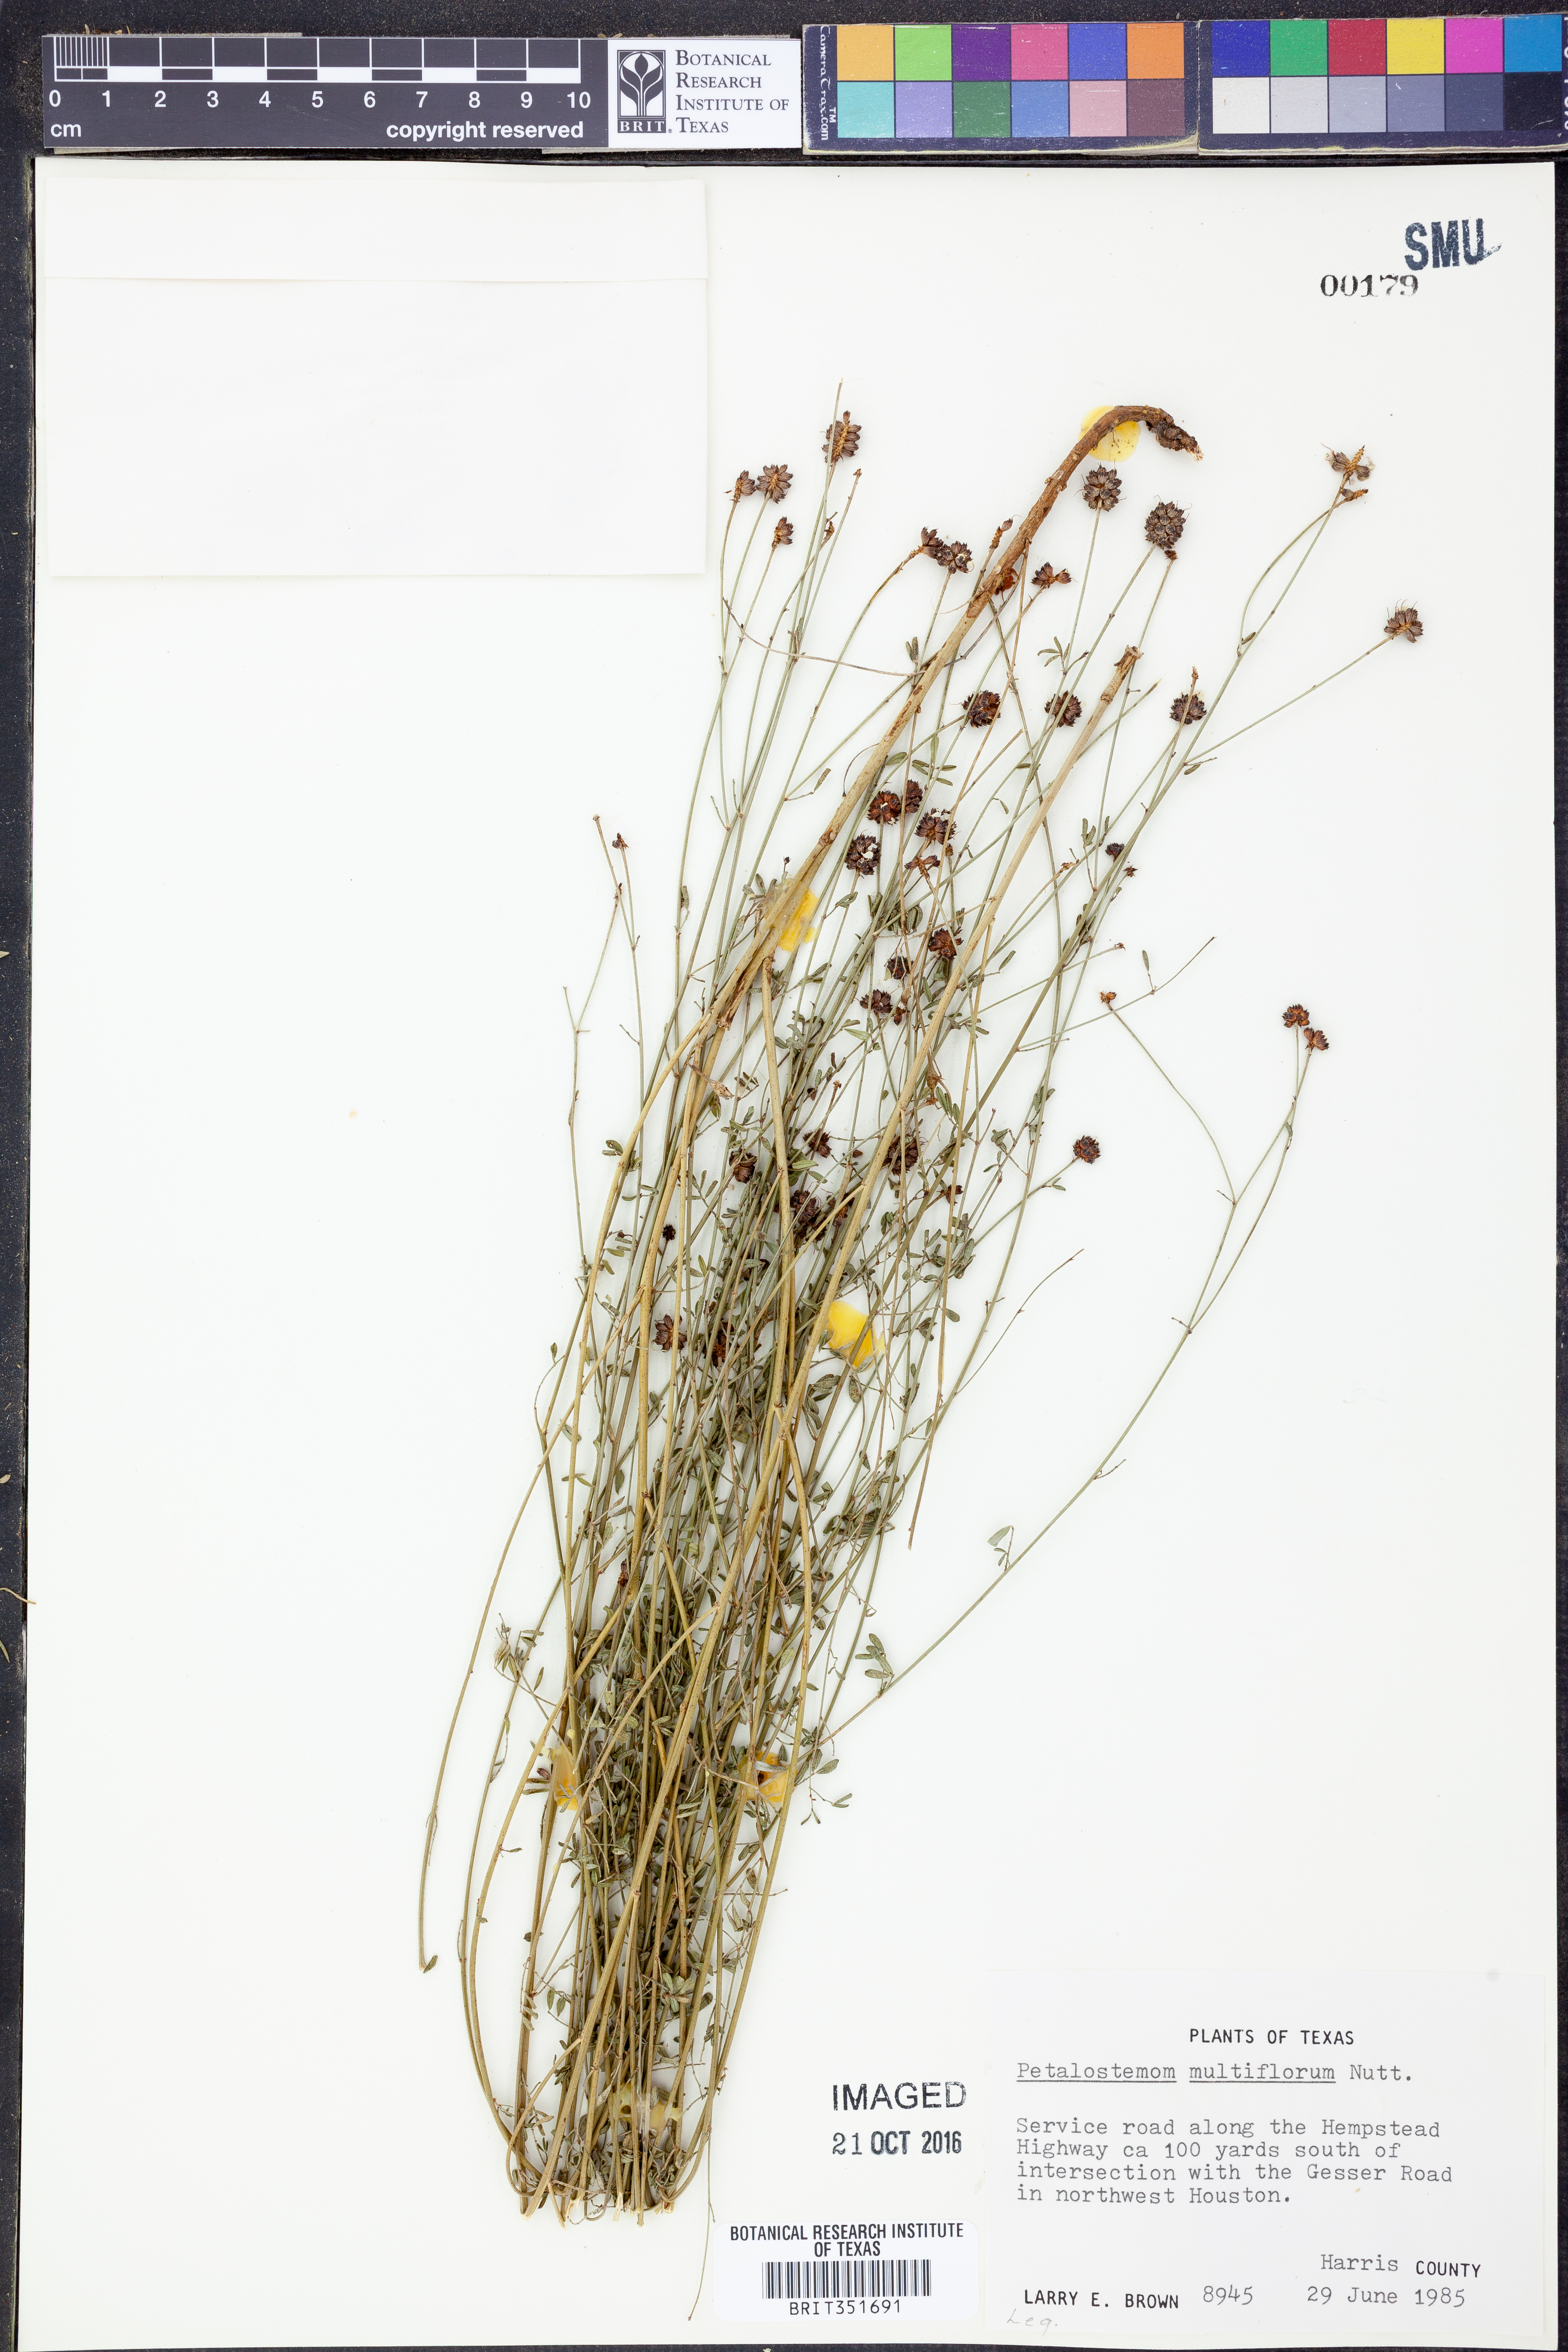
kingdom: Plantae
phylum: Tracheophyta
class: Magnoliopsida
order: Fabales
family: Fabaceae
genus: Dalea
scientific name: Dalea multiflora
